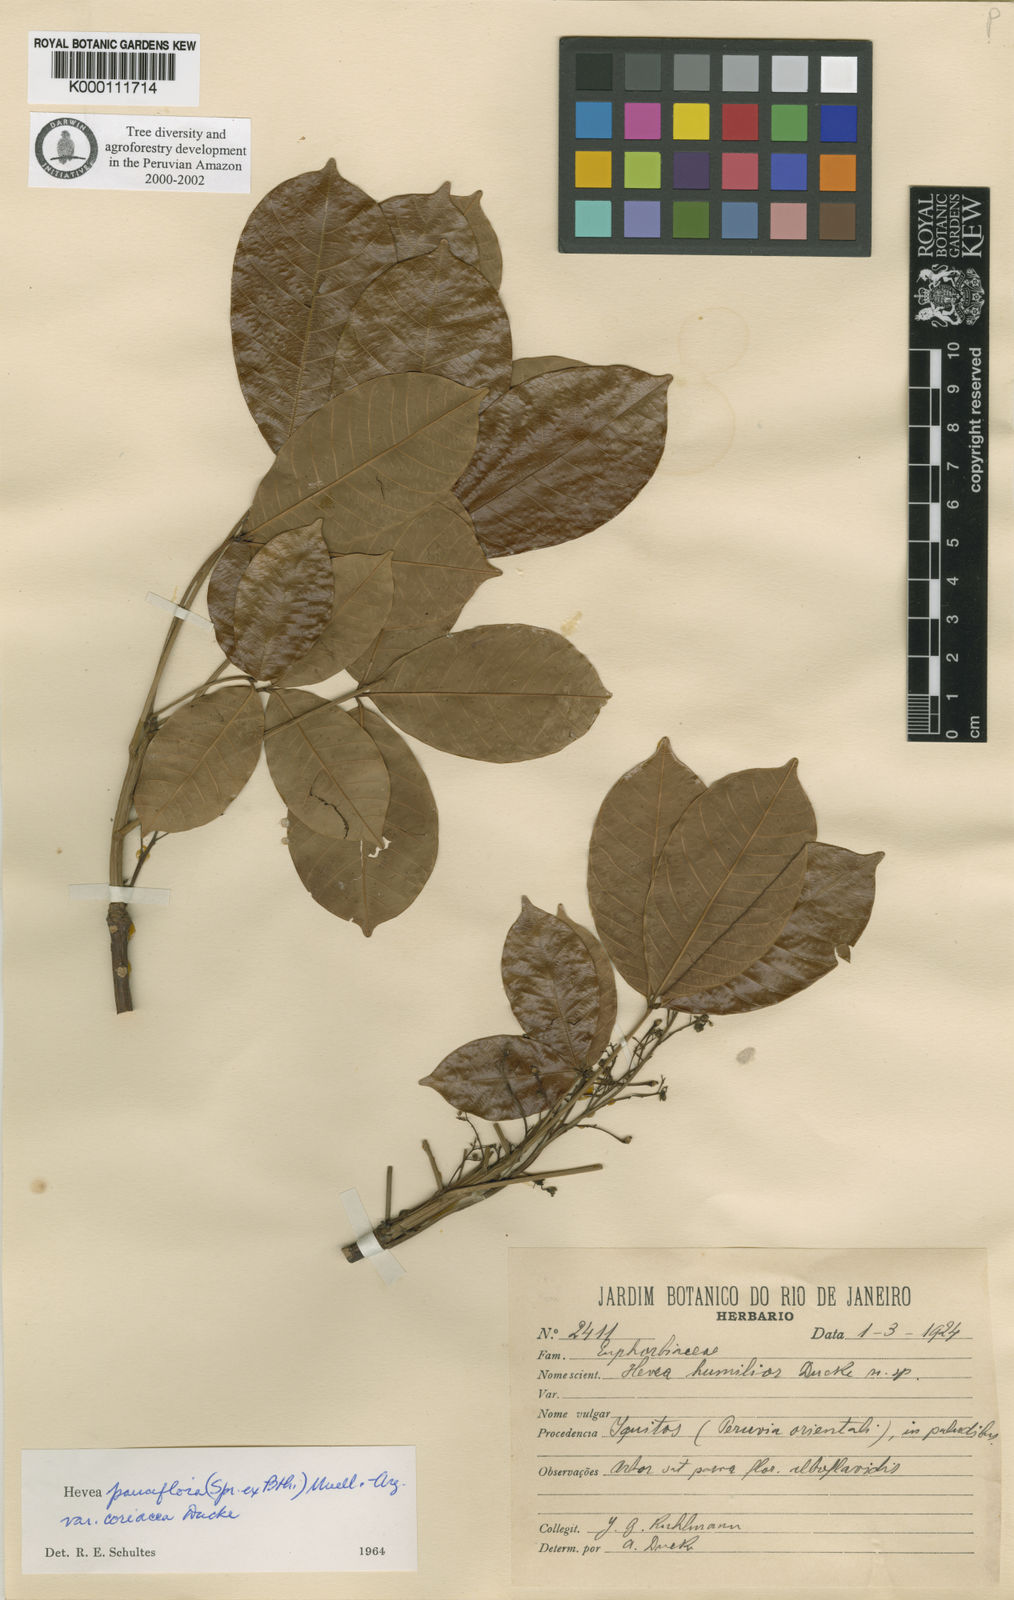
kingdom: Plantae
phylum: Tracheophyta
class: Magnoliopsida
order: Malpighiales
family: Euphorbiaceae
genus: Hevea
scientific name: Hevea pauciflora
